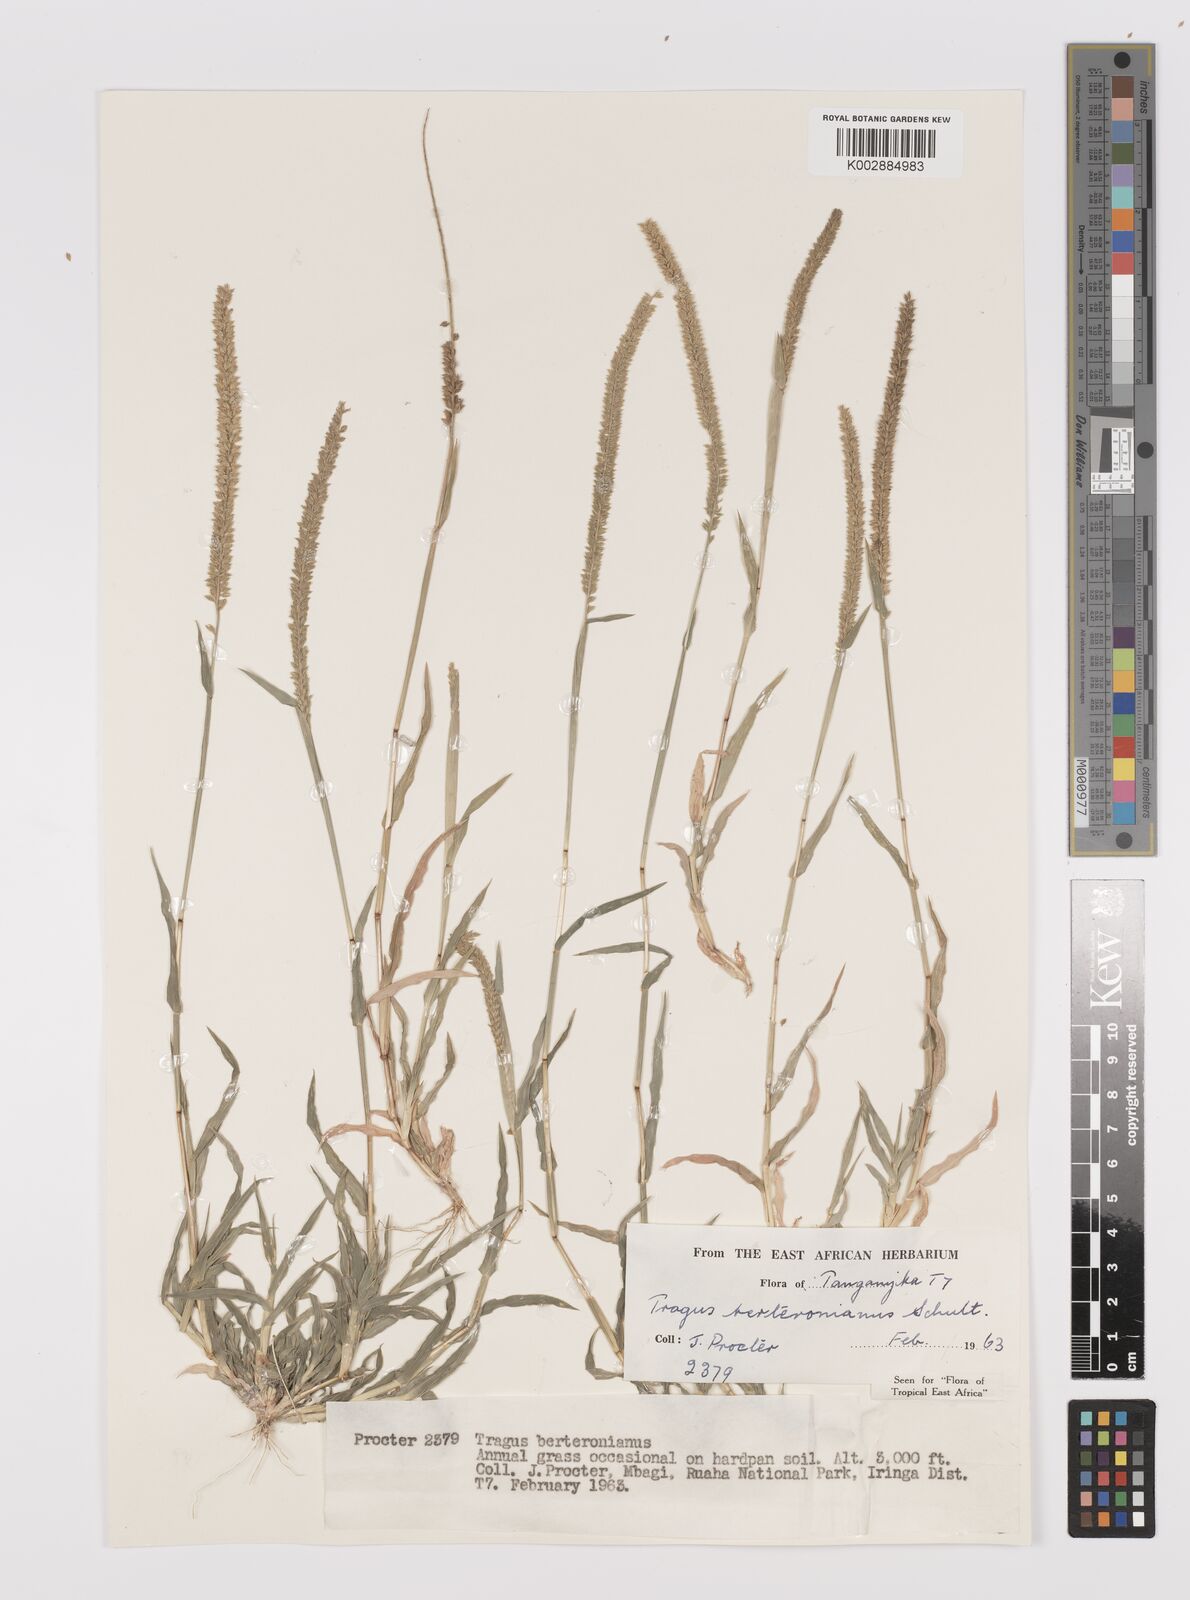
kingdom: Plantae
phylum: Tracheophyta
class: Liliopsida
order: Poales
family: Poaceae
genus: Tragus
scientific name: Tragus berteronianus
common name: African bur-grass
